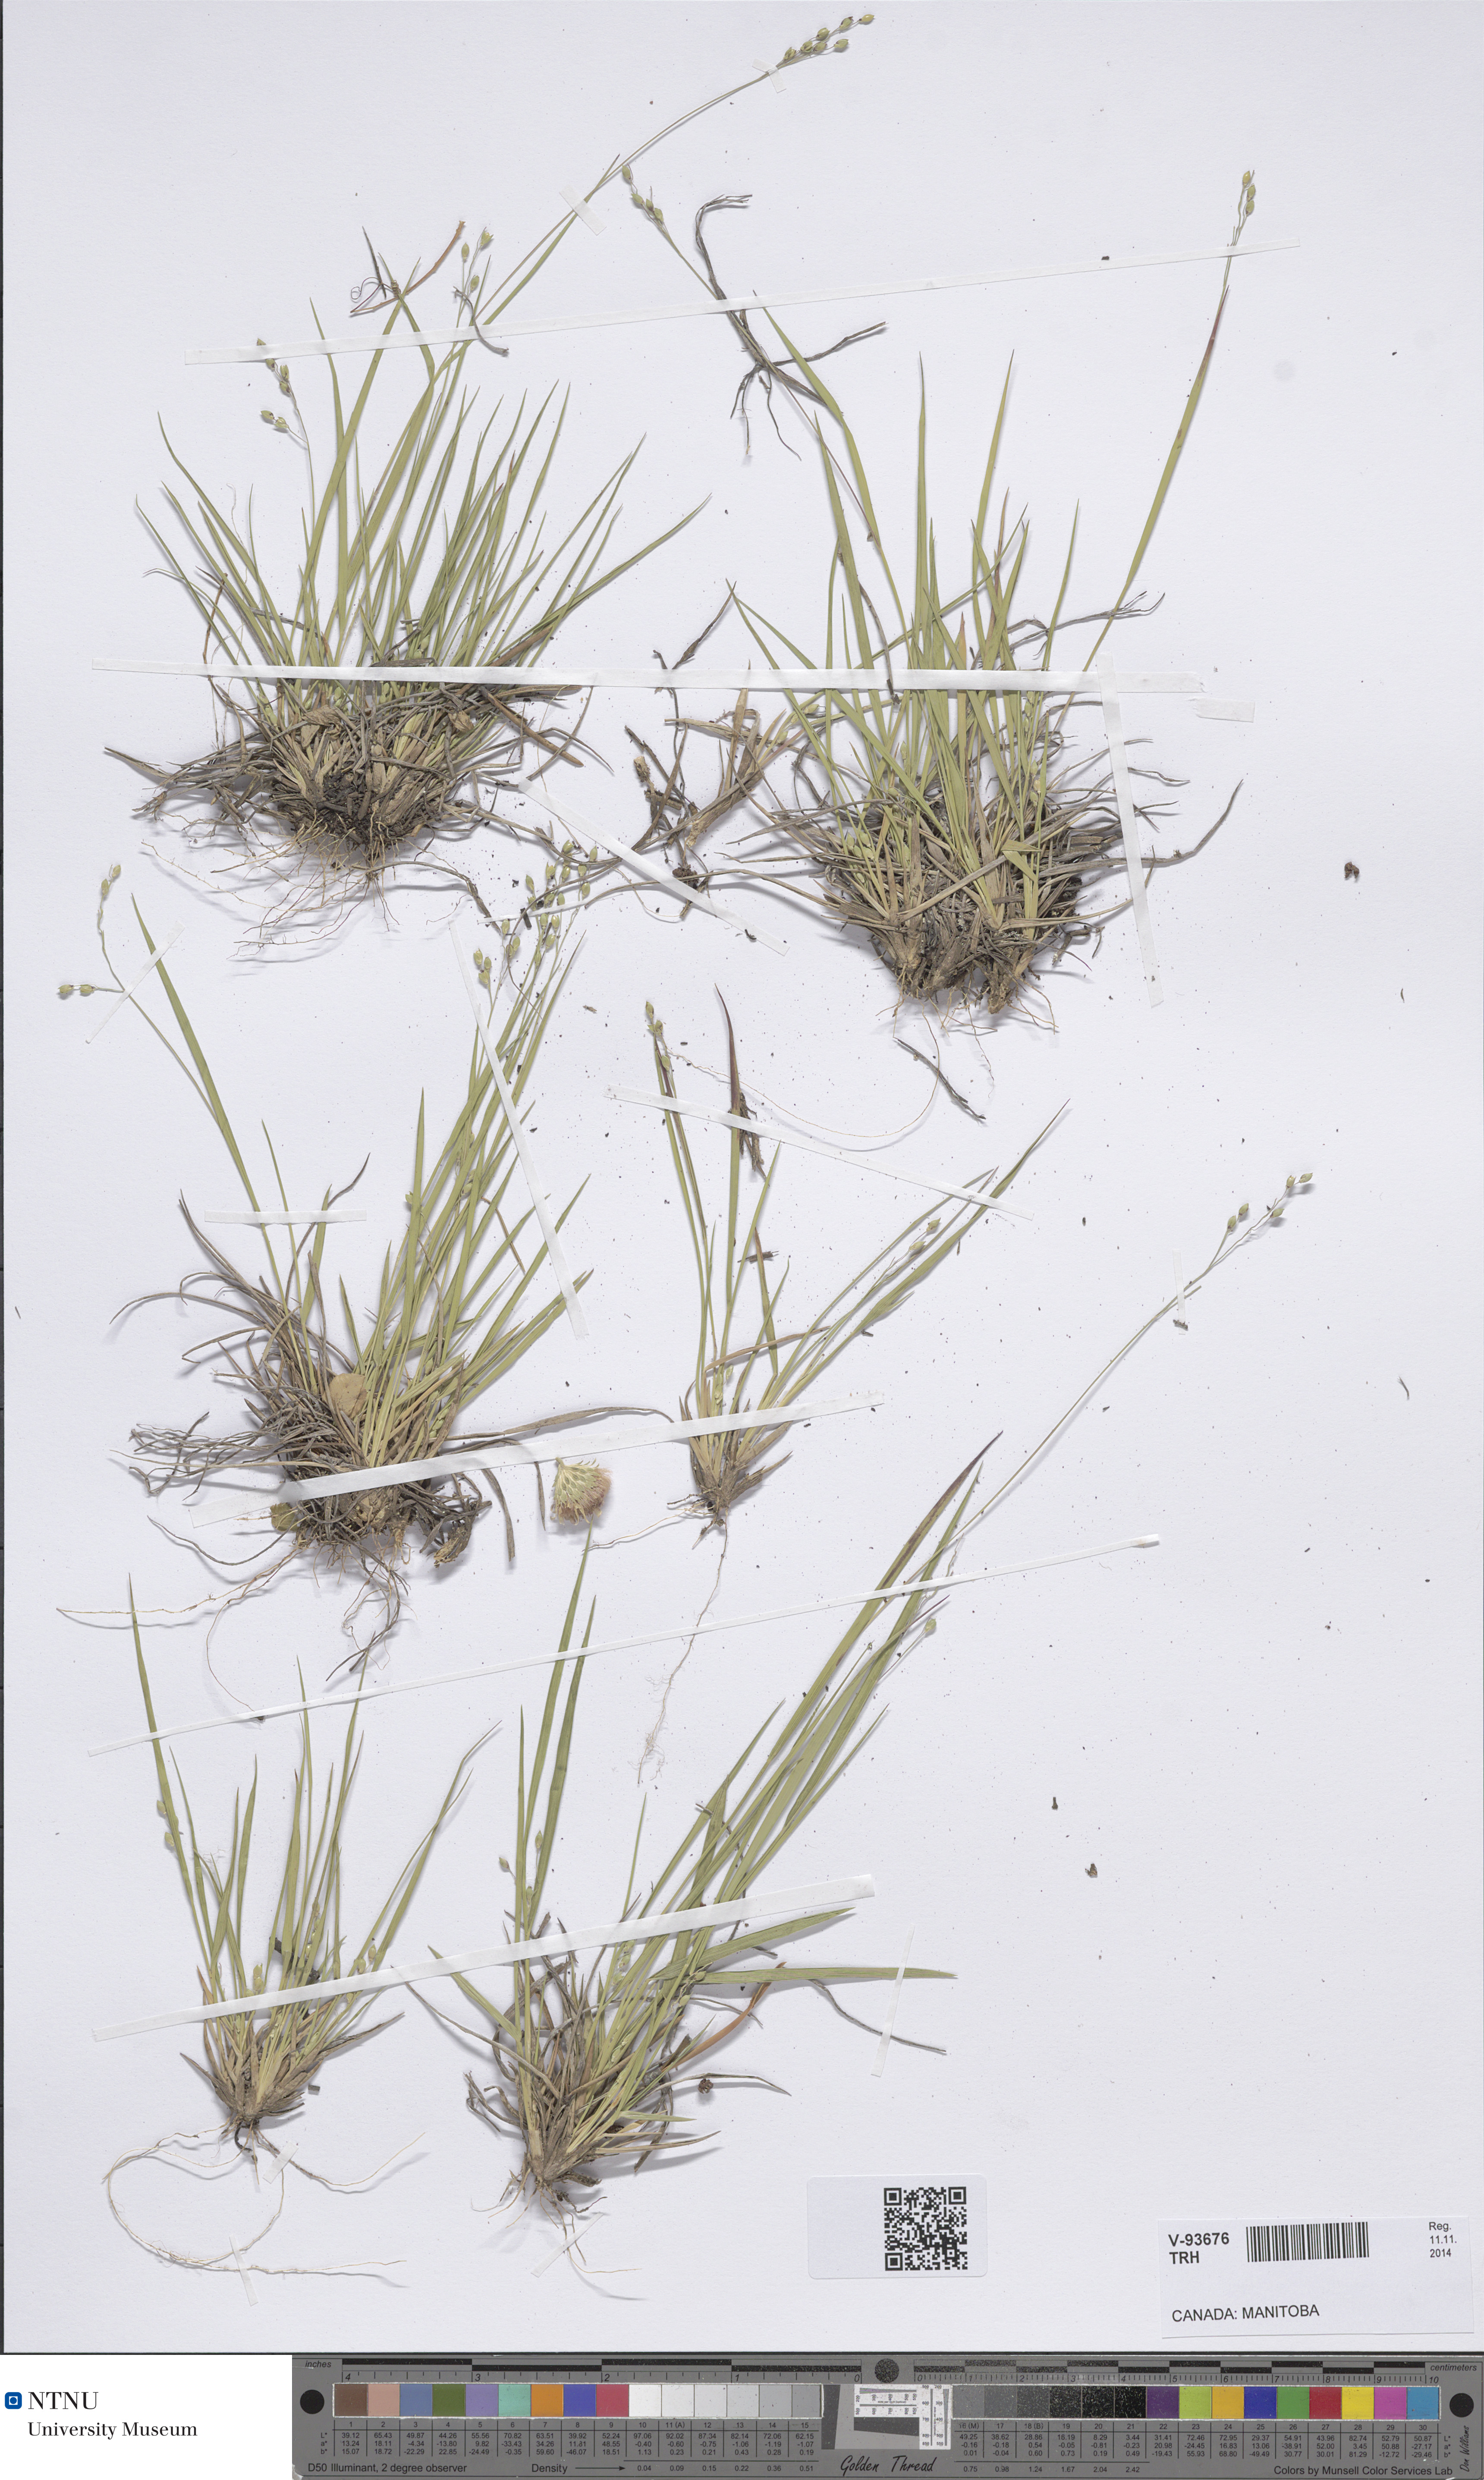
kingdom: Plantae
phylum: Tracheophyta
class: Liliopsida
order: Poales
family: Poaceae
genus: Dichanthelium
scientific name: Dichanthelium depauperatum
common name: Depauperate panicgrass
